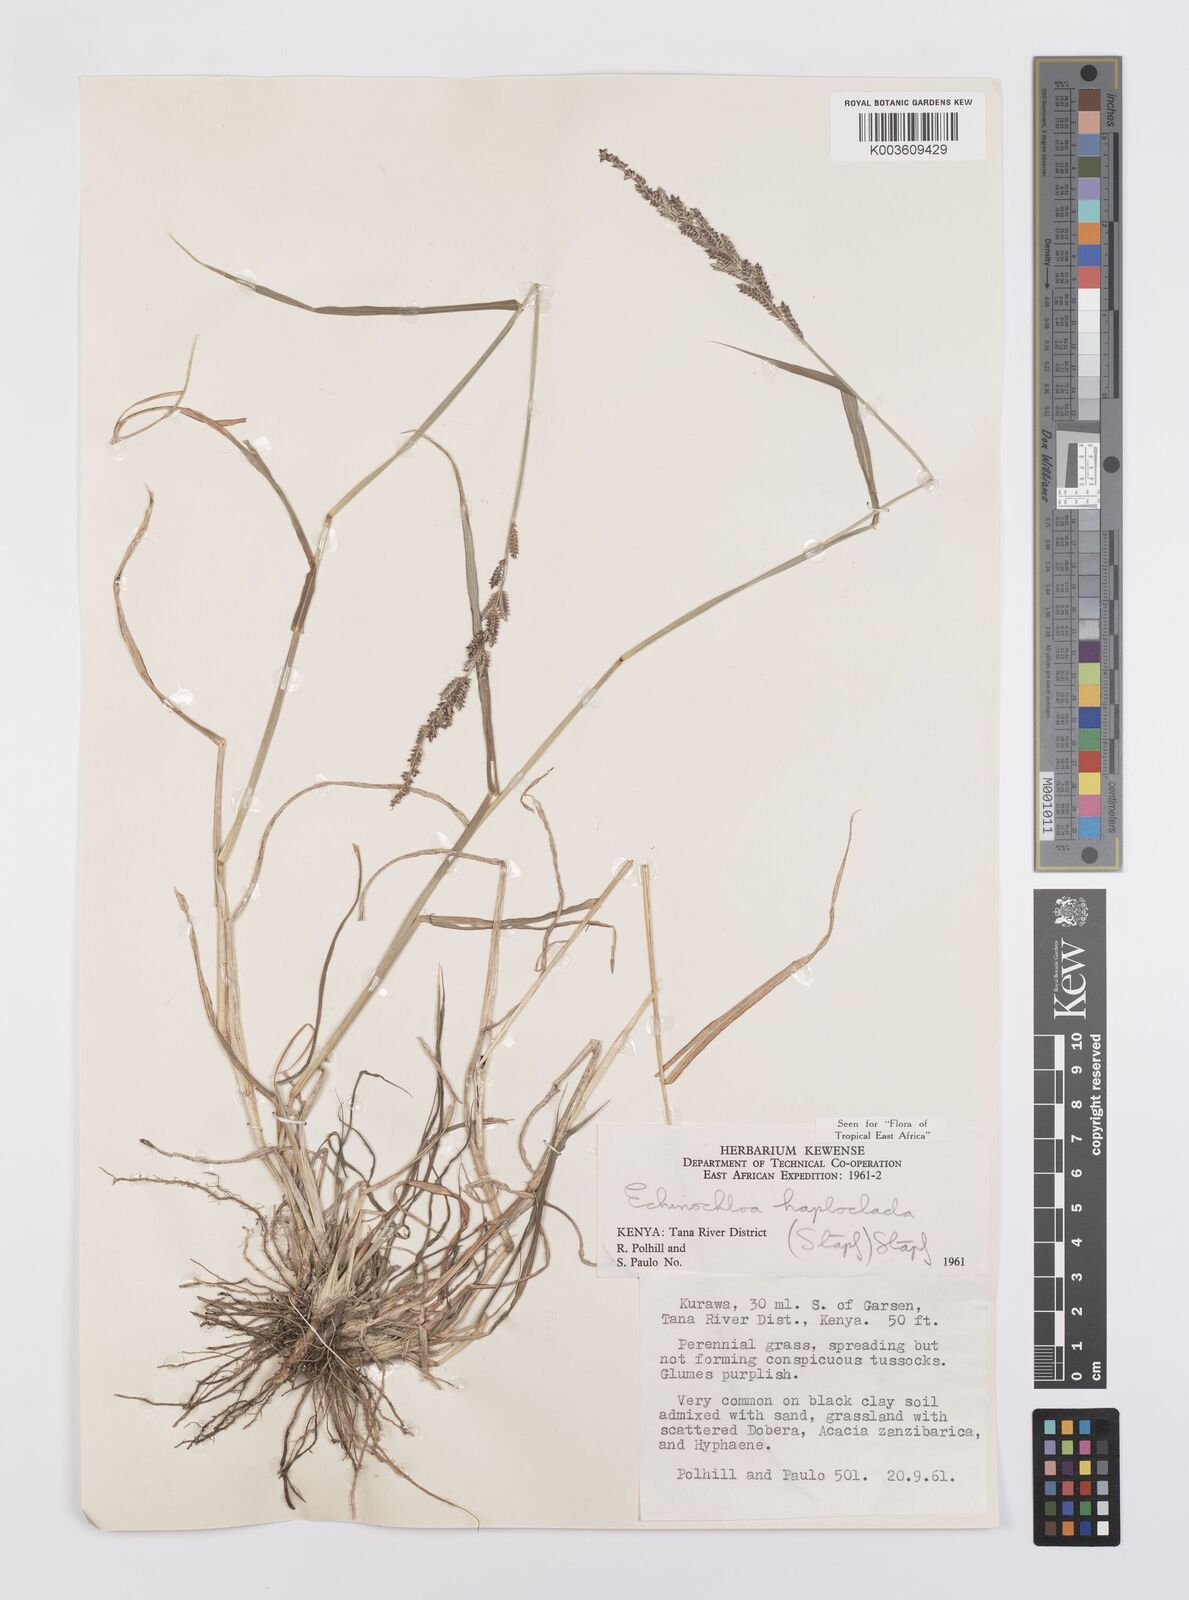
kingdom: Plantae
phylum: Tracheophyta
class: Liliopsida
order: Poales
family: Poaceae
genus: Echinochloa
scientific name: Echinochloa haploclada
